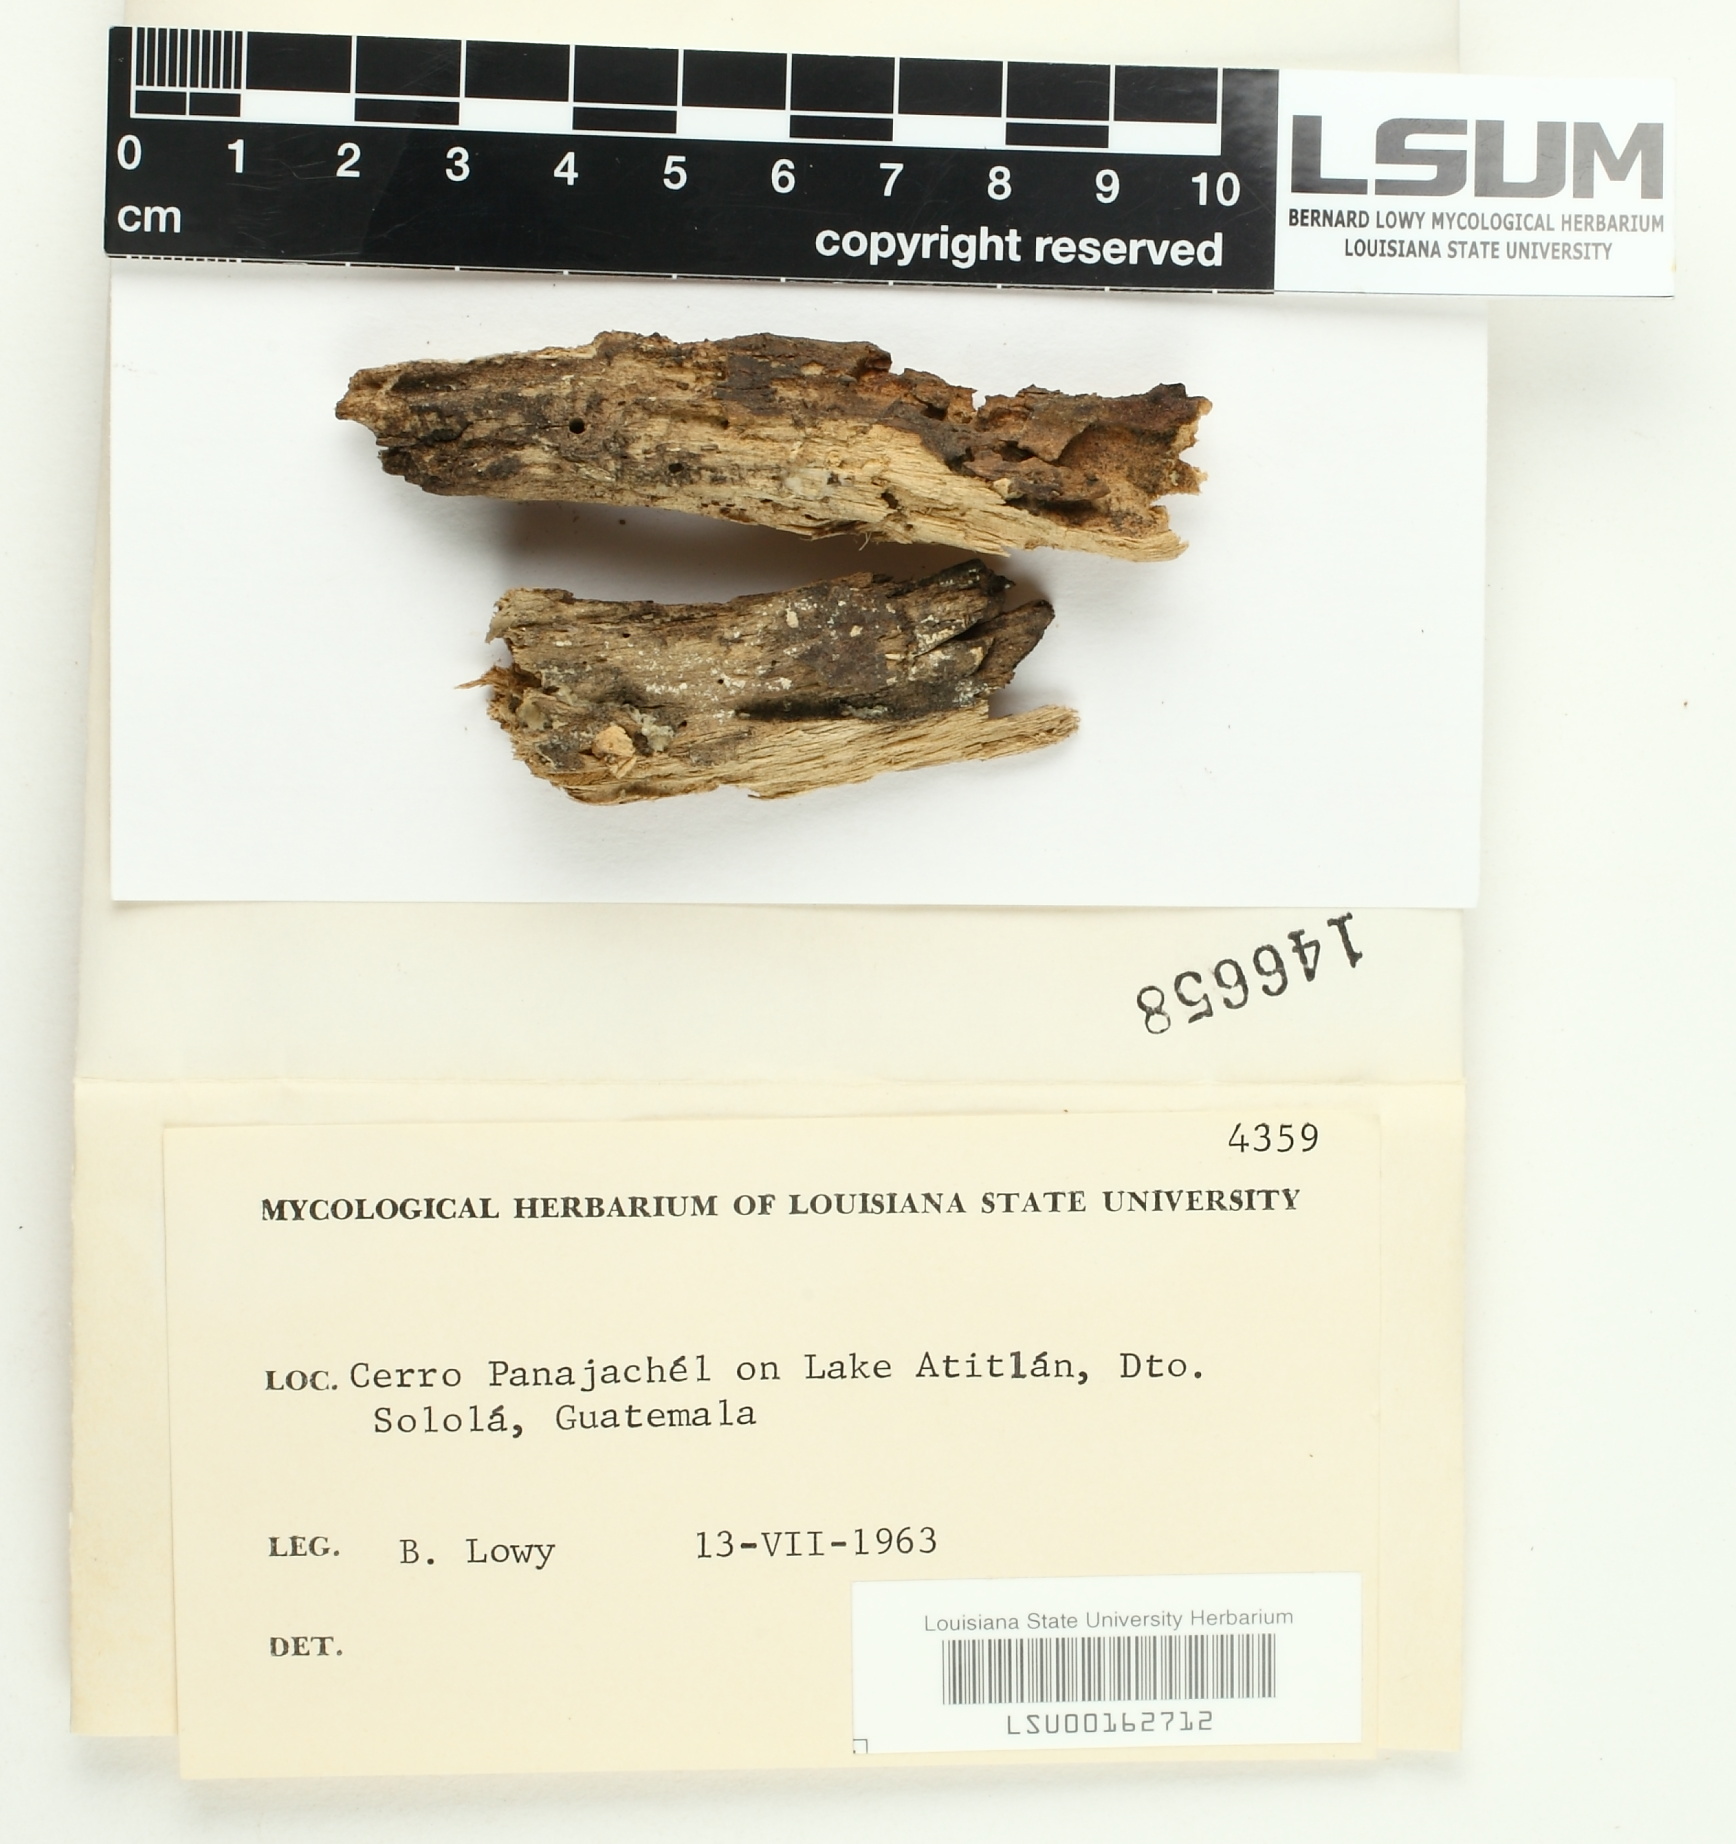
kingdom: Fungi
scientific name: Fungi
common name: Fungi
